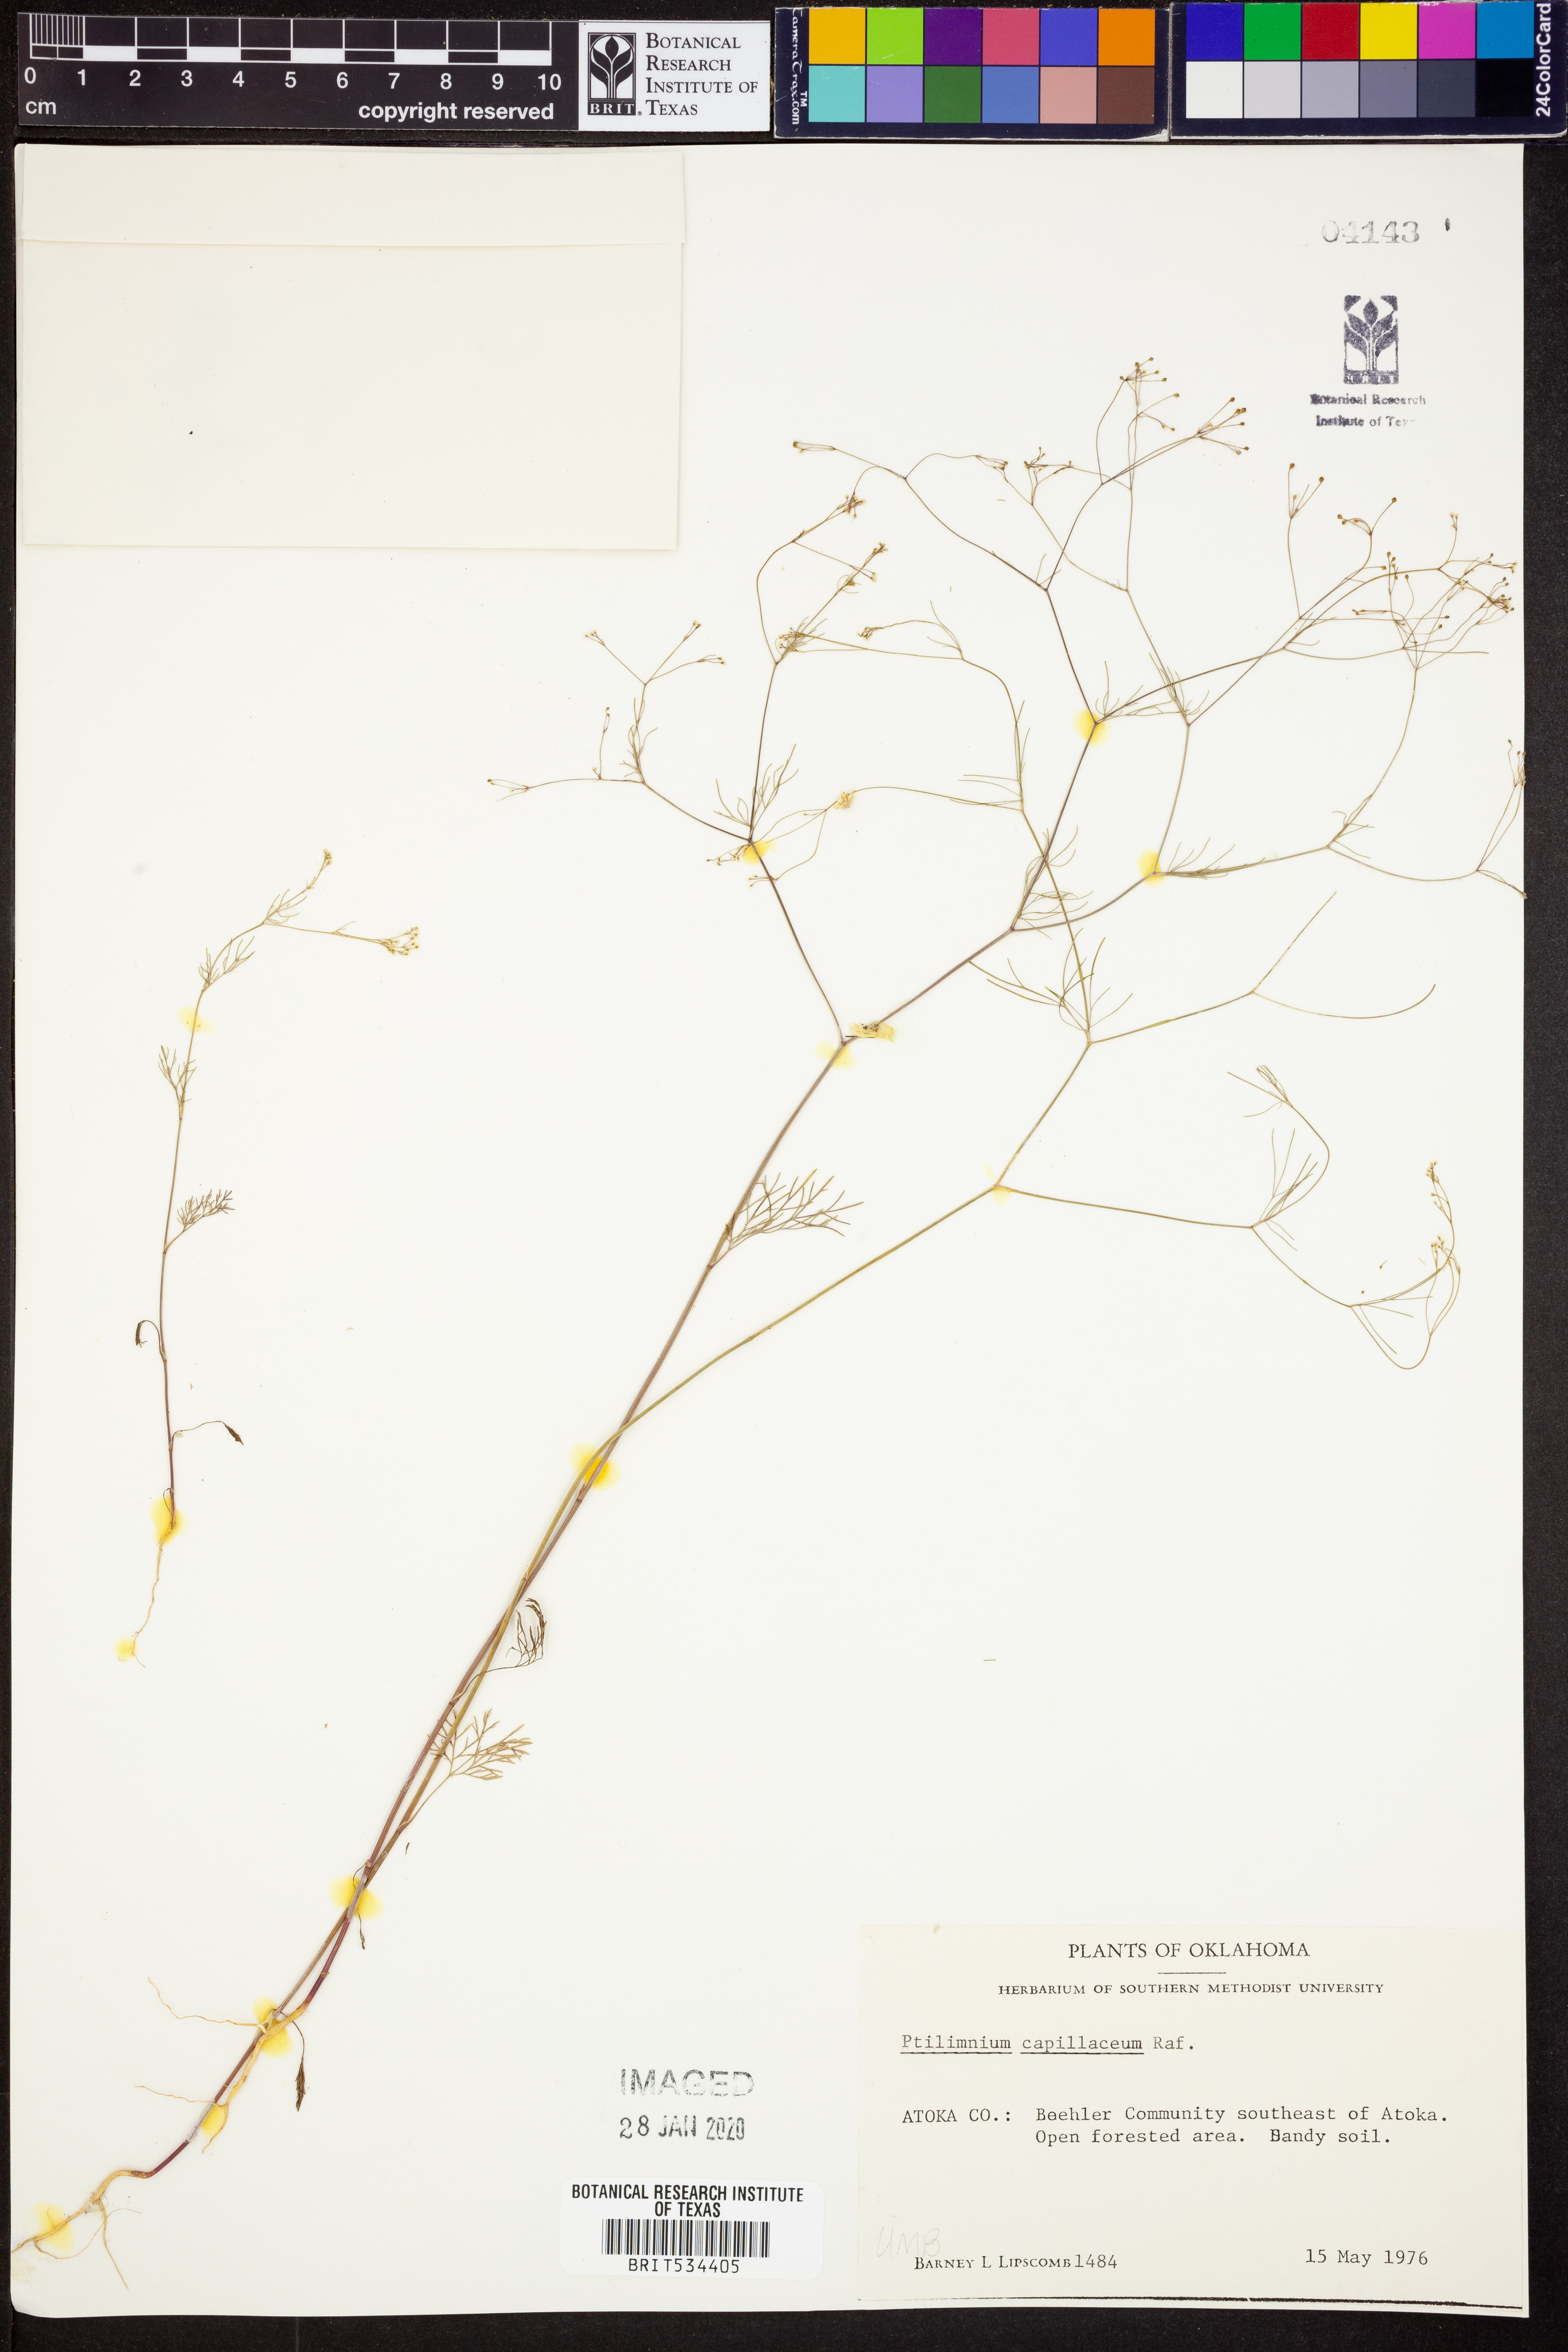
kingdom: Plantae
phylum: Tracheophyta
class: Magnoliopsida
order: Apiales
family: Apiaceae
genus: Ptilimnium
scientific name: Ptilimnium capillaceum
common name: Herbwilliam
